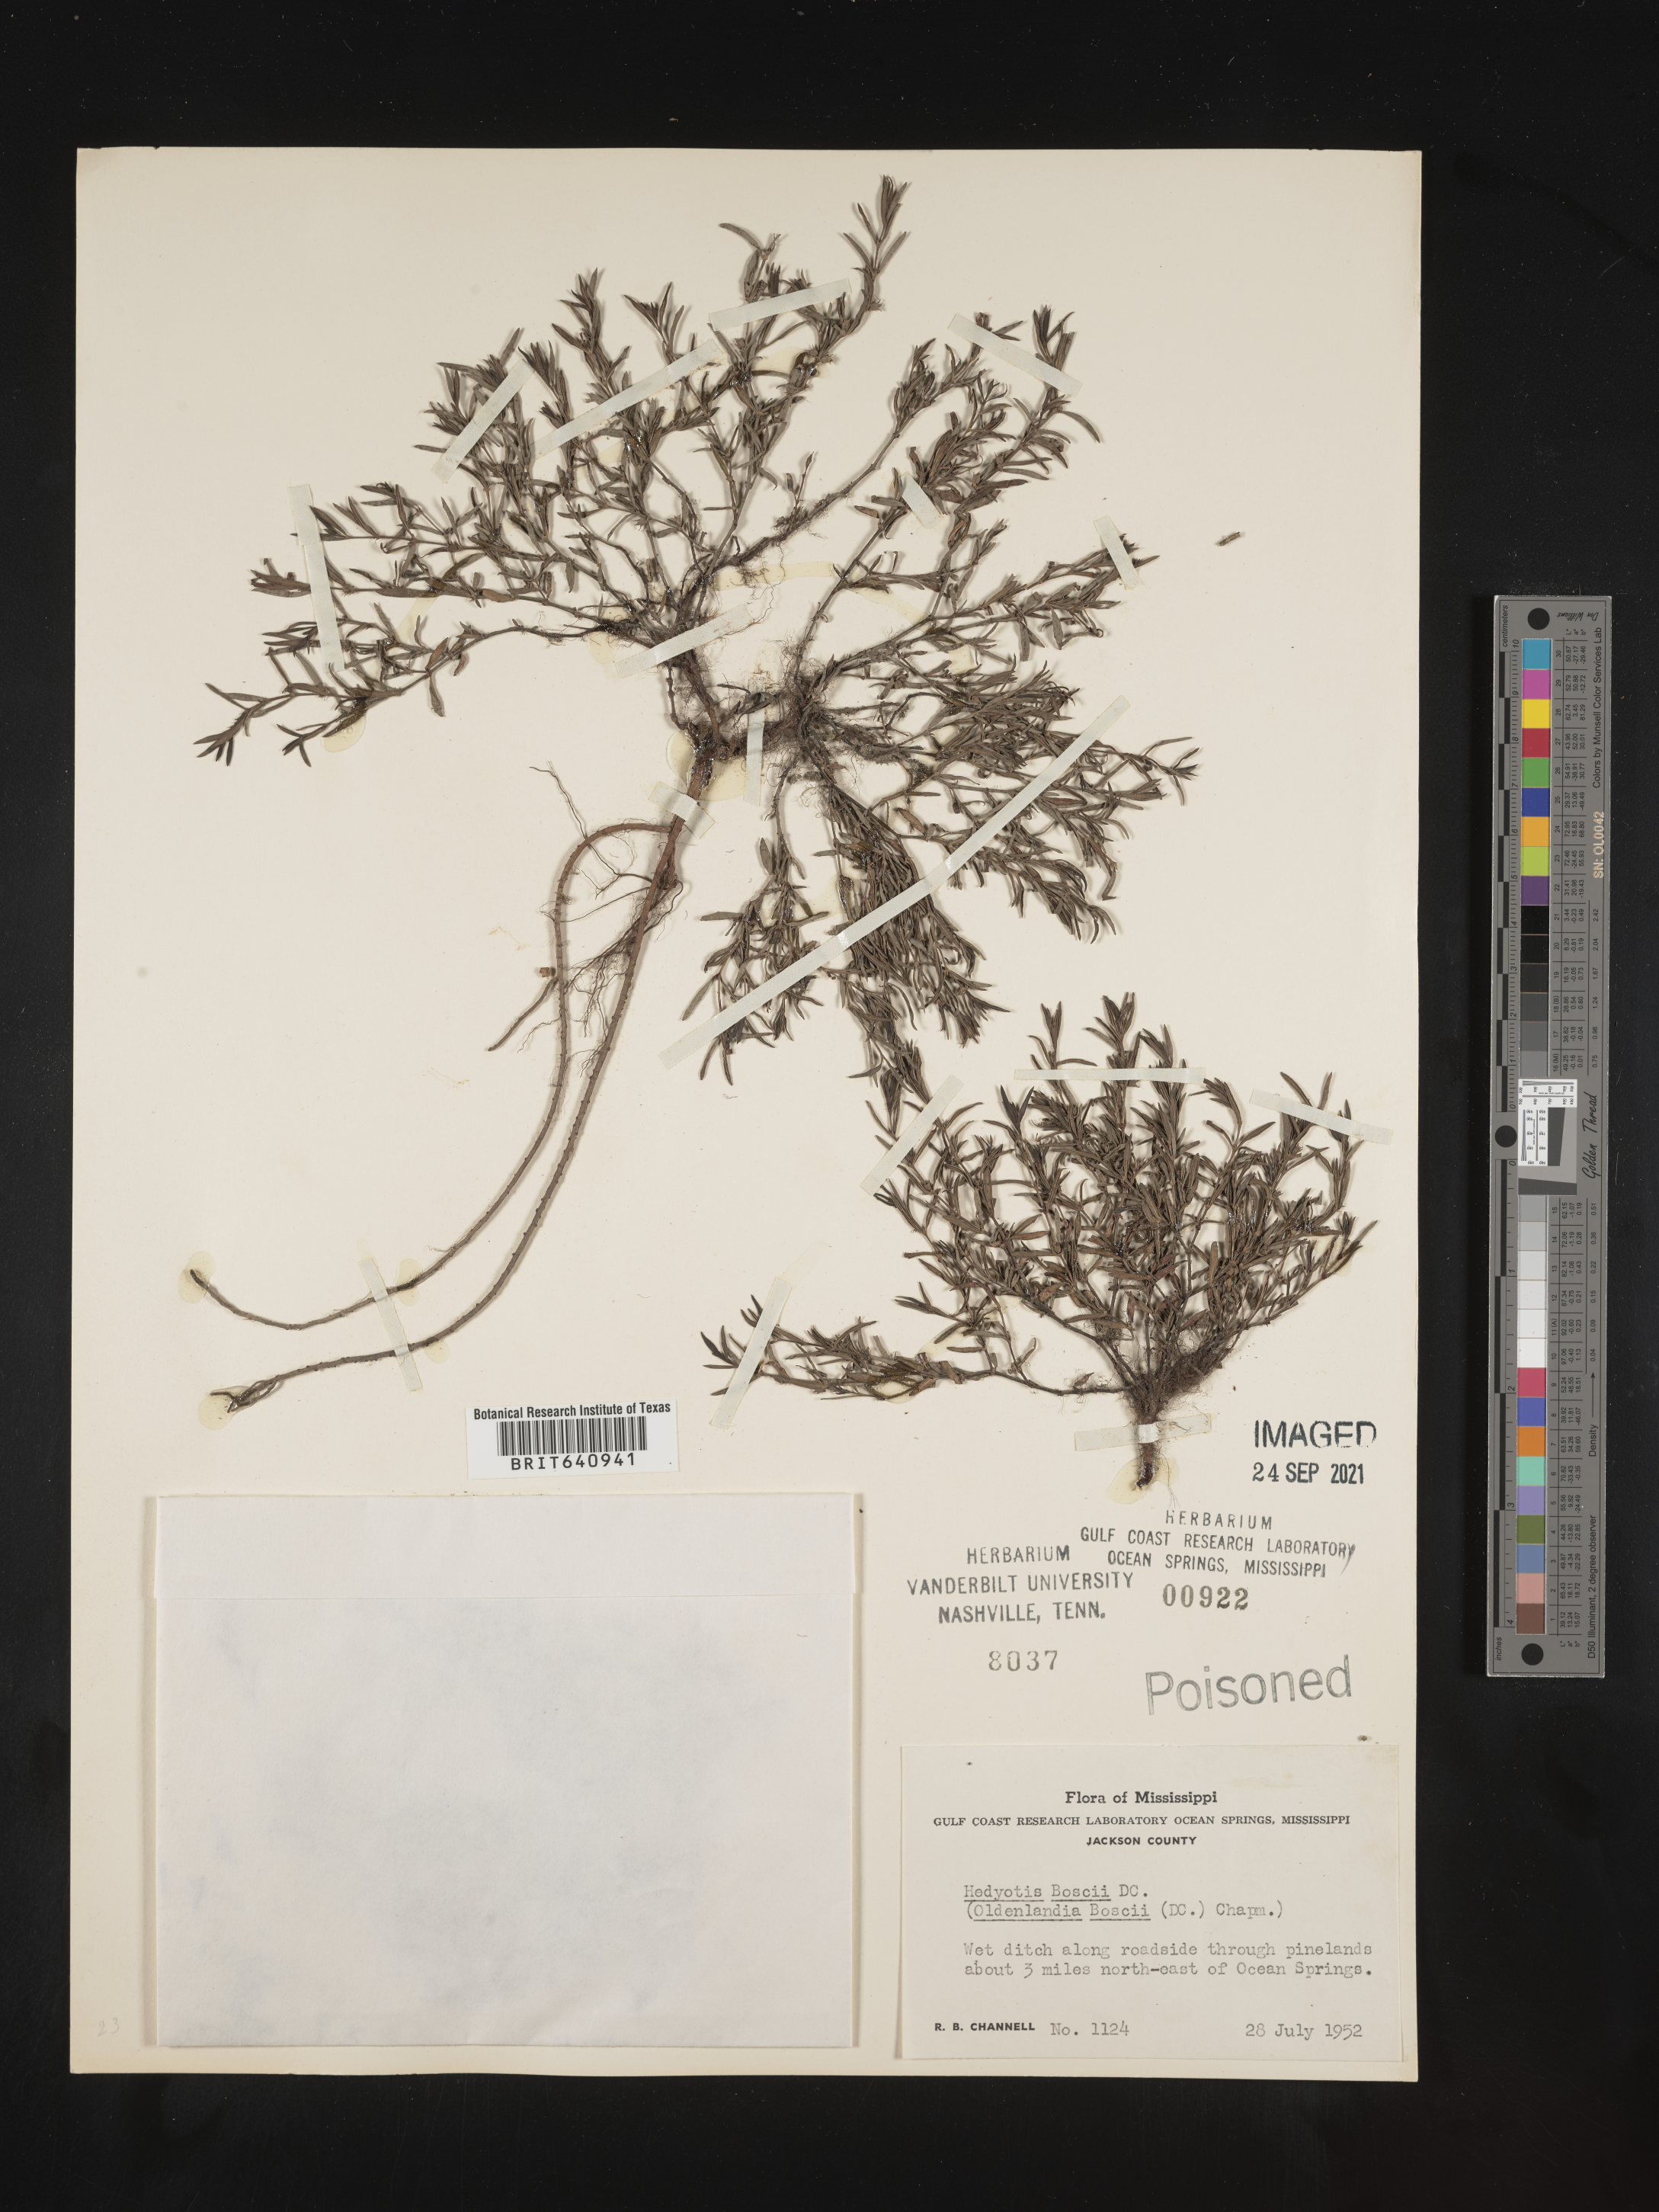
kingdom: Plantae
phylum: Tracheophyta
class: Magnoliopsida
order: Gentianales
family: Rubiaceae
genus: Oldenlandia
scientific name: Oldenlandia boscii
